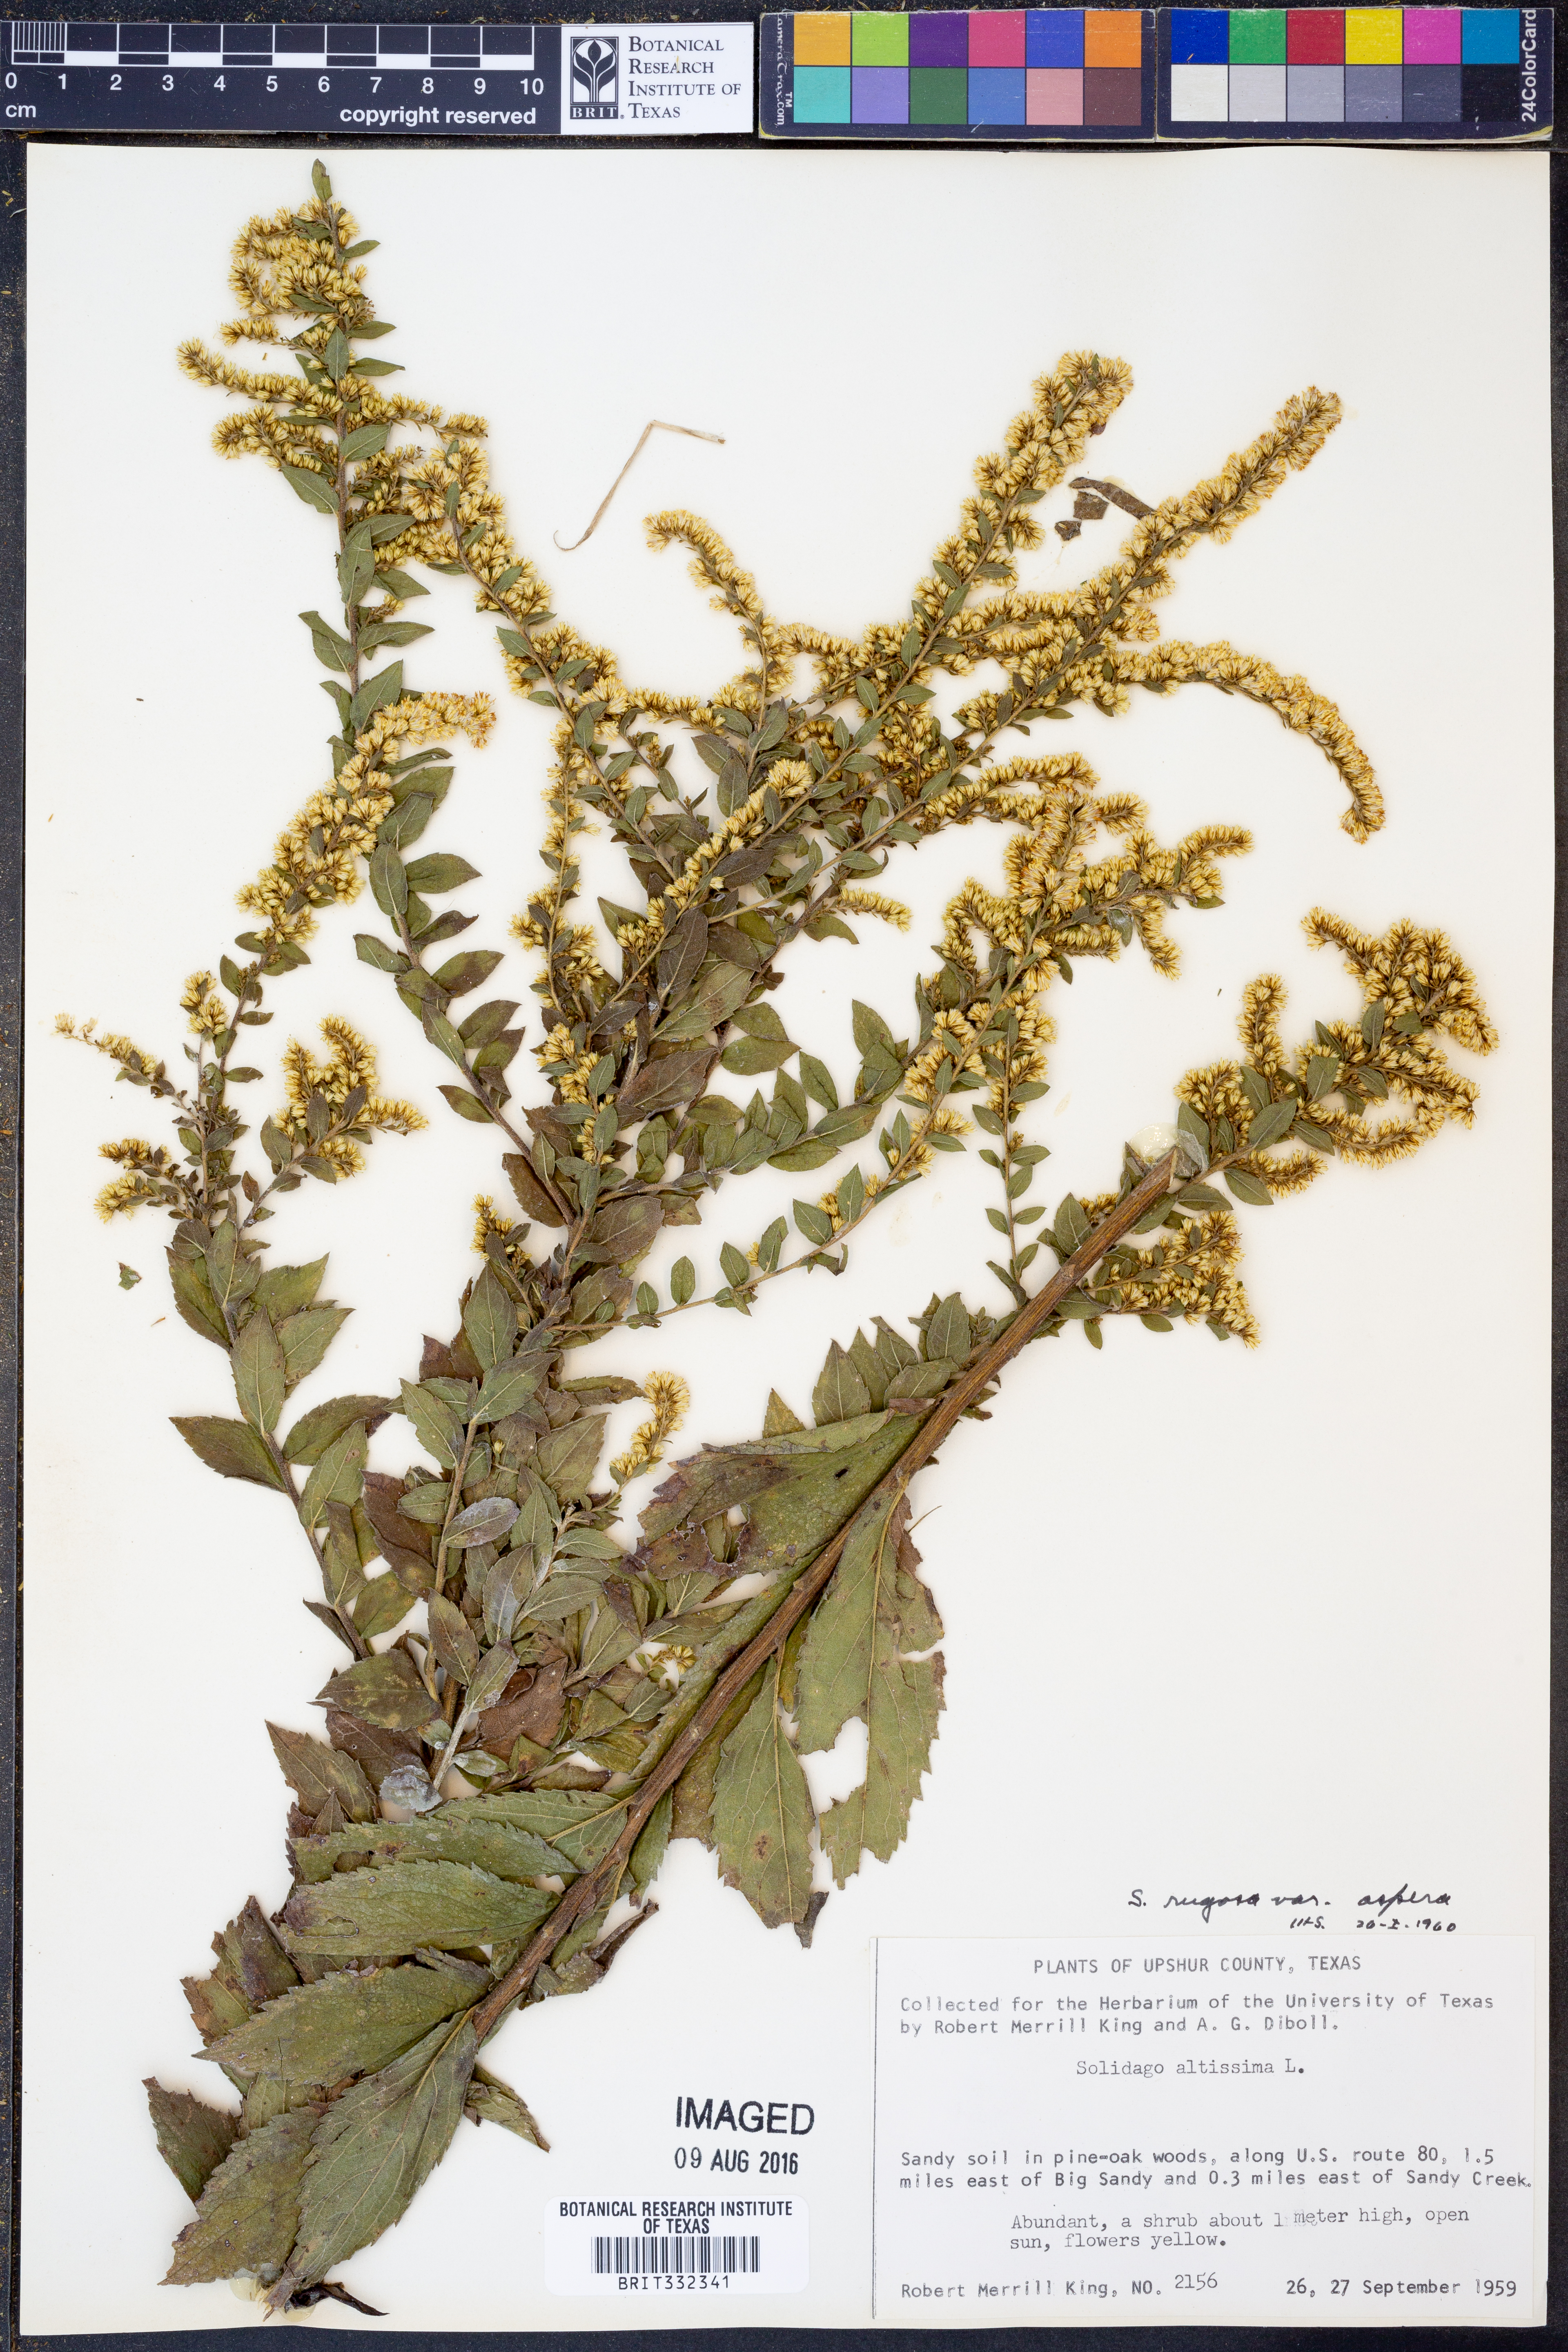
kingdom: Plantae
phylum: Tracheophyta
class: Magnoliopsida
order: Asterales
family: Asteraceae
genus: Solidago
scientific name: Solidago rugosa
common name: Rough-stemmed goldenrod
